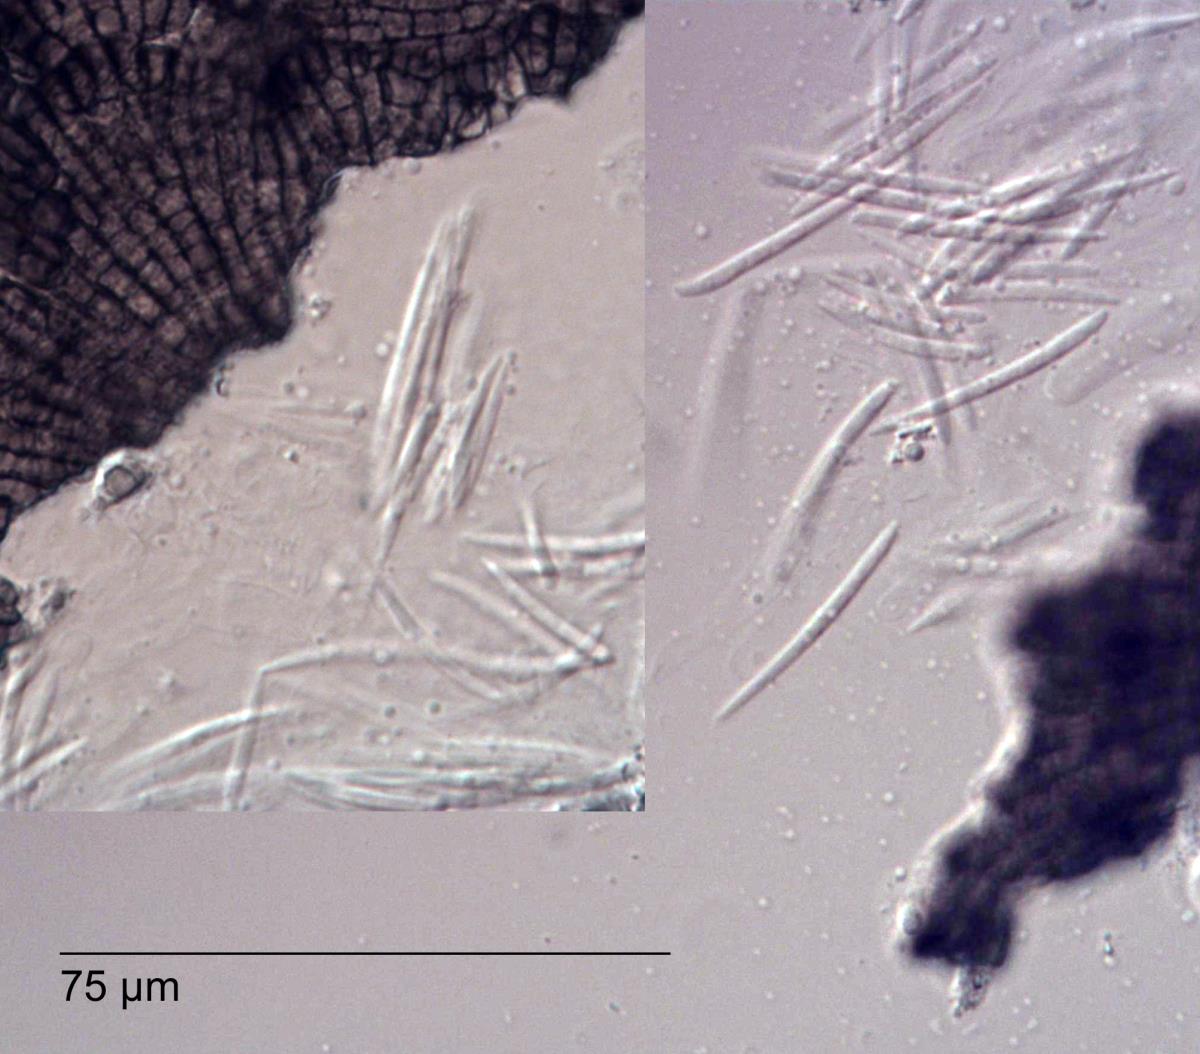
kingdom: Fungi
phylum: Ascomycota
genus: Enthallopycnidium
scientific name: Enthallopycnidium
